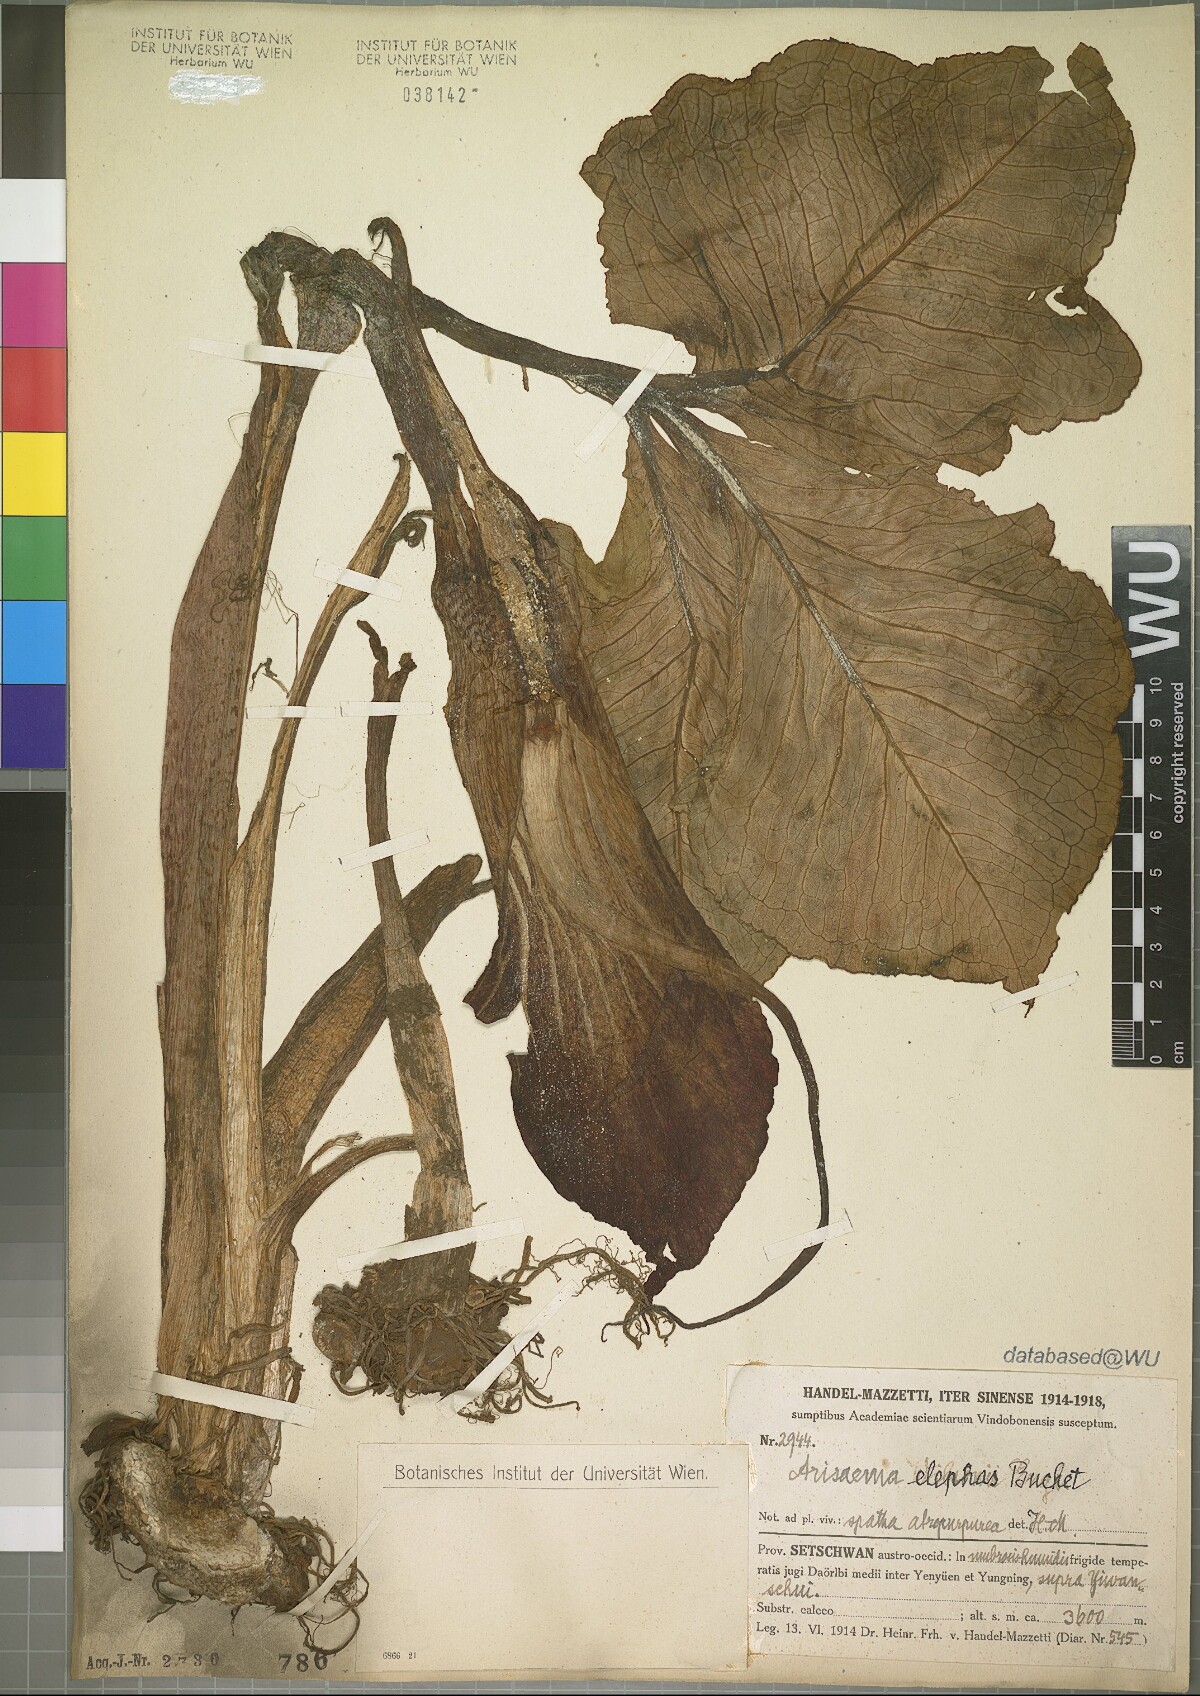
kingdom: Plantae
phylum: Tracheophyta
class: Liliopsida
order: Alismatales
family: Araceae
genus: Arisaema
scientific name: Arisaema elephas
